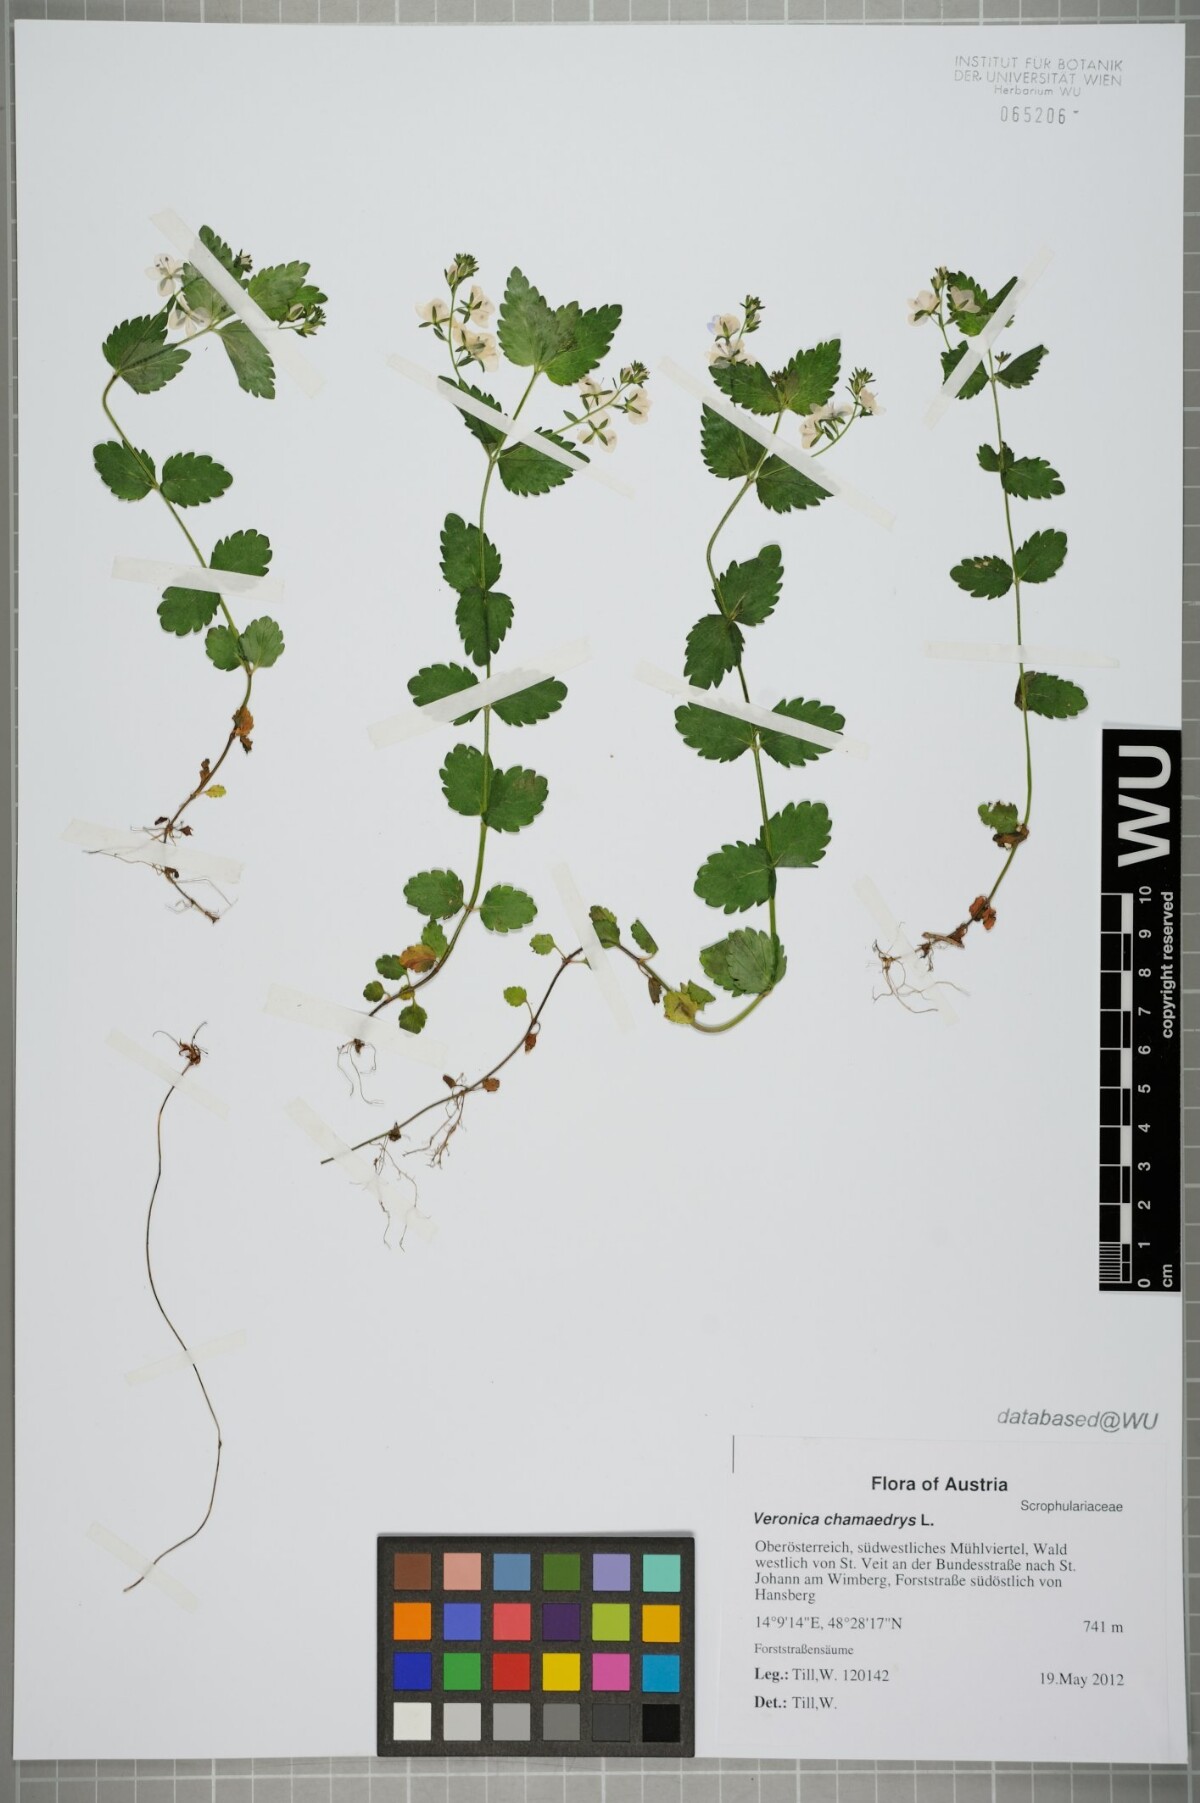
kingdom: Plantae
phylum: Tracheophyta
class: Magnoliopsida
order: Lamiales
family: Plantaginaceae
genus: Veronica
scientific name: Veronica chamaedrys
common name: Germander speedwell
